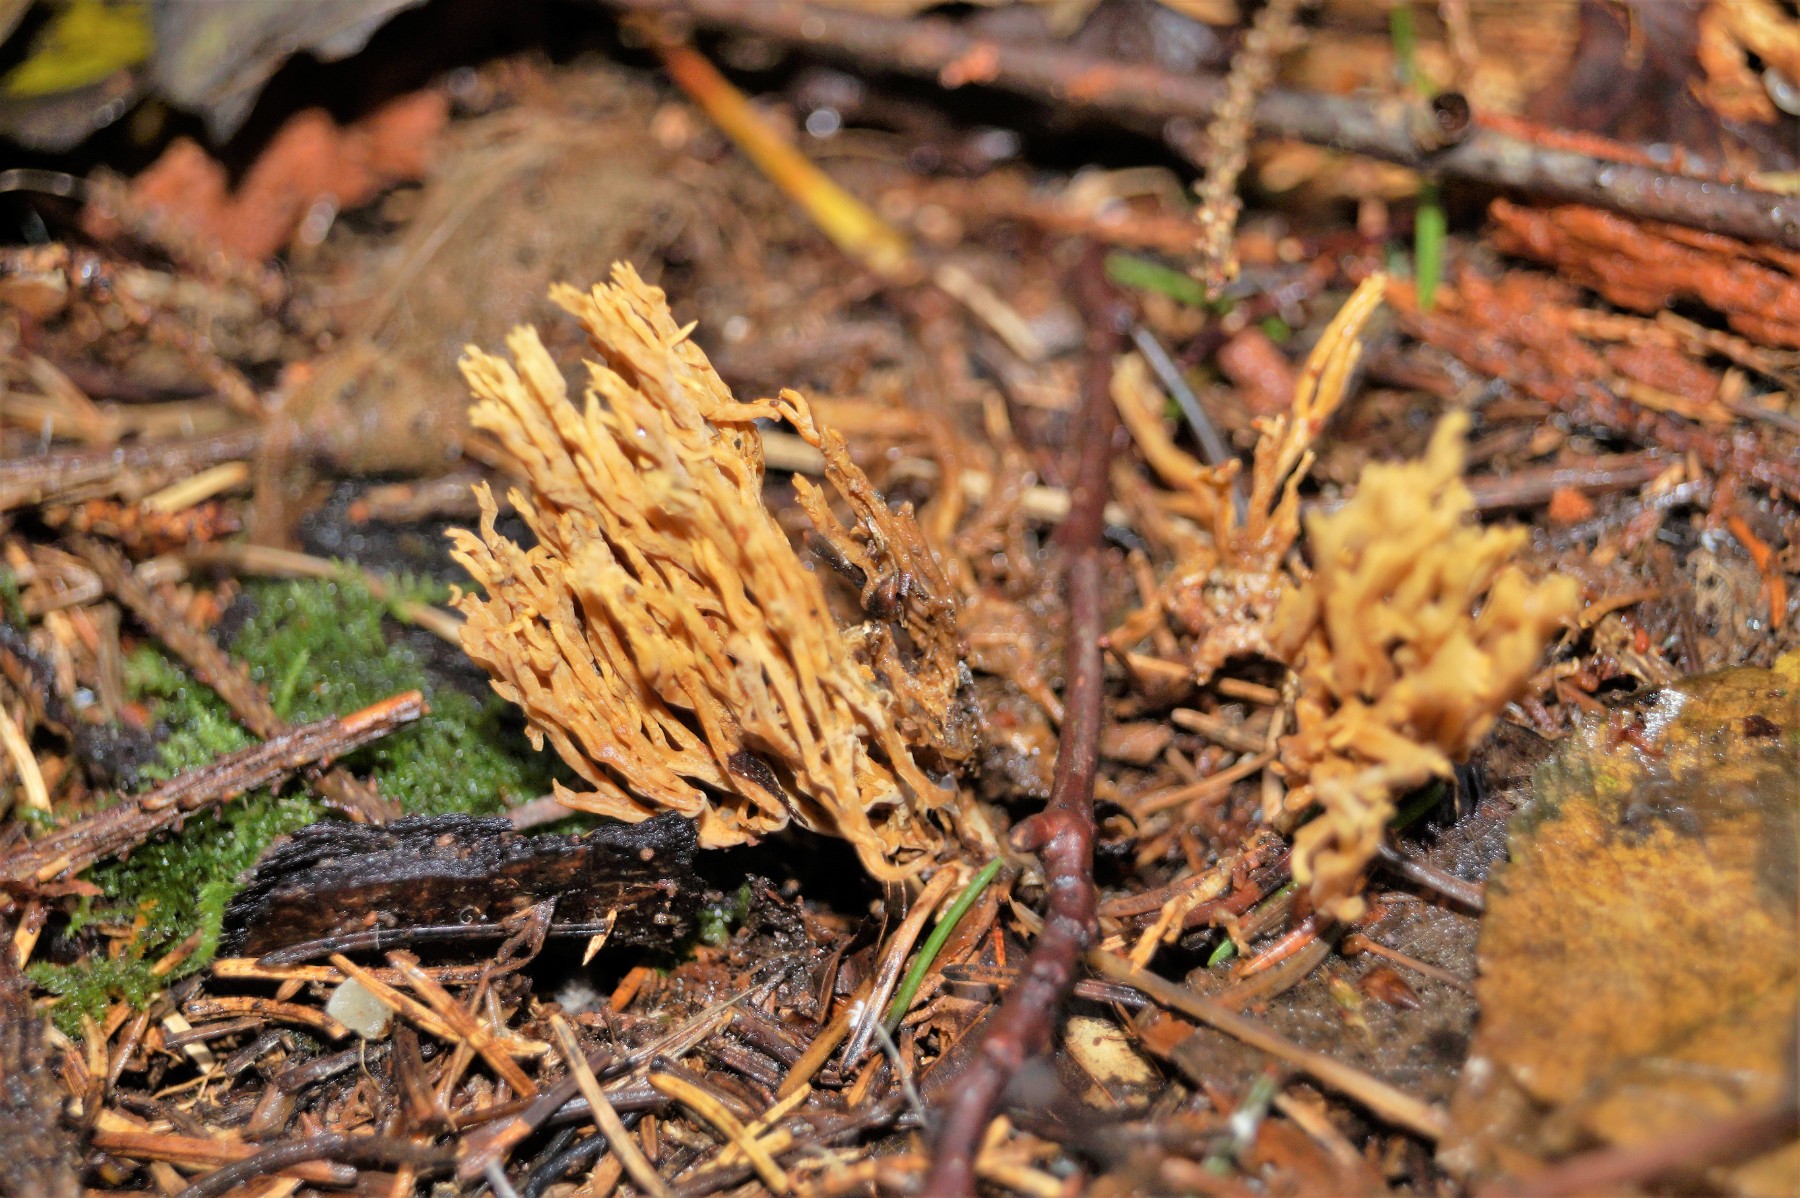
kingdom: Fungi
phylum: Basidiomycota
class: Agaricomycetes
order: Gomphales
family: Gomphaceae
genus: Phaeoclavulina
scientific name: Phaeoclavulina eumorpha
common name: gran-koralsvamp
